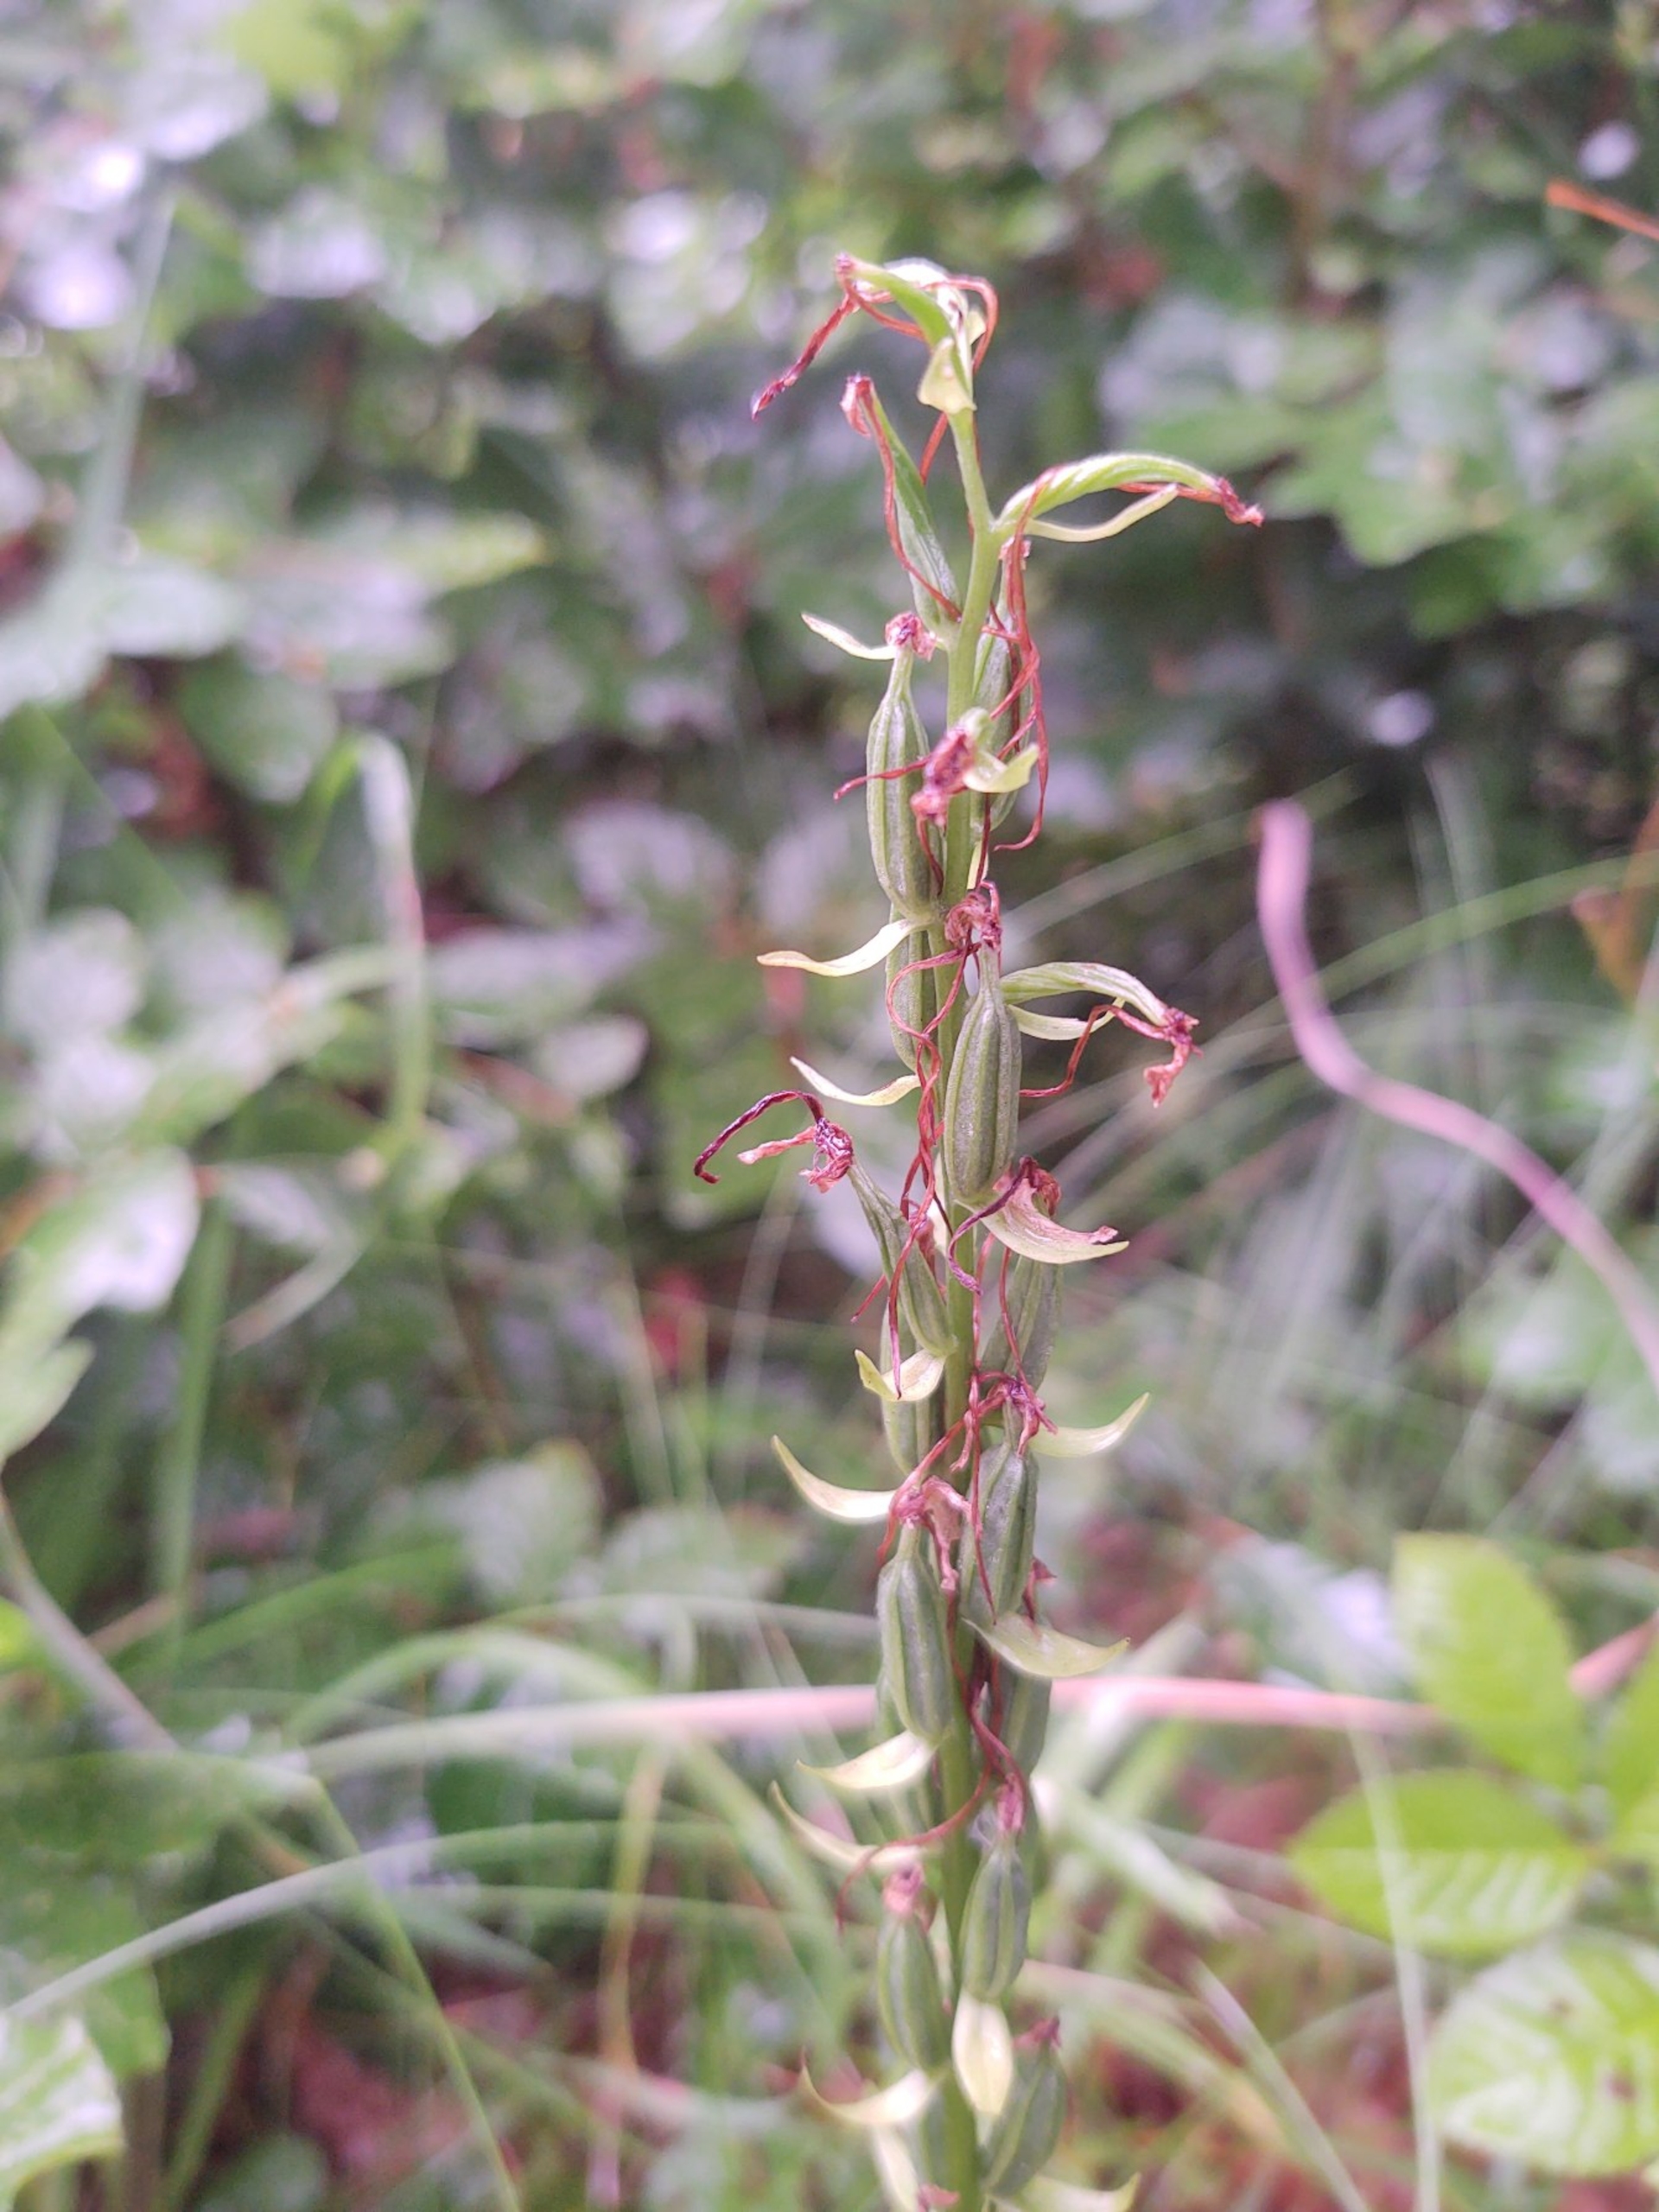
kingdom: Plantae
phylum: Tracheophyta
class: Liliopsida
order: Asparagales
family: Orchidaceae
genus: Platanthera
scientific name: Platanthera bifolia
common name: Langsporet gøgelilje
